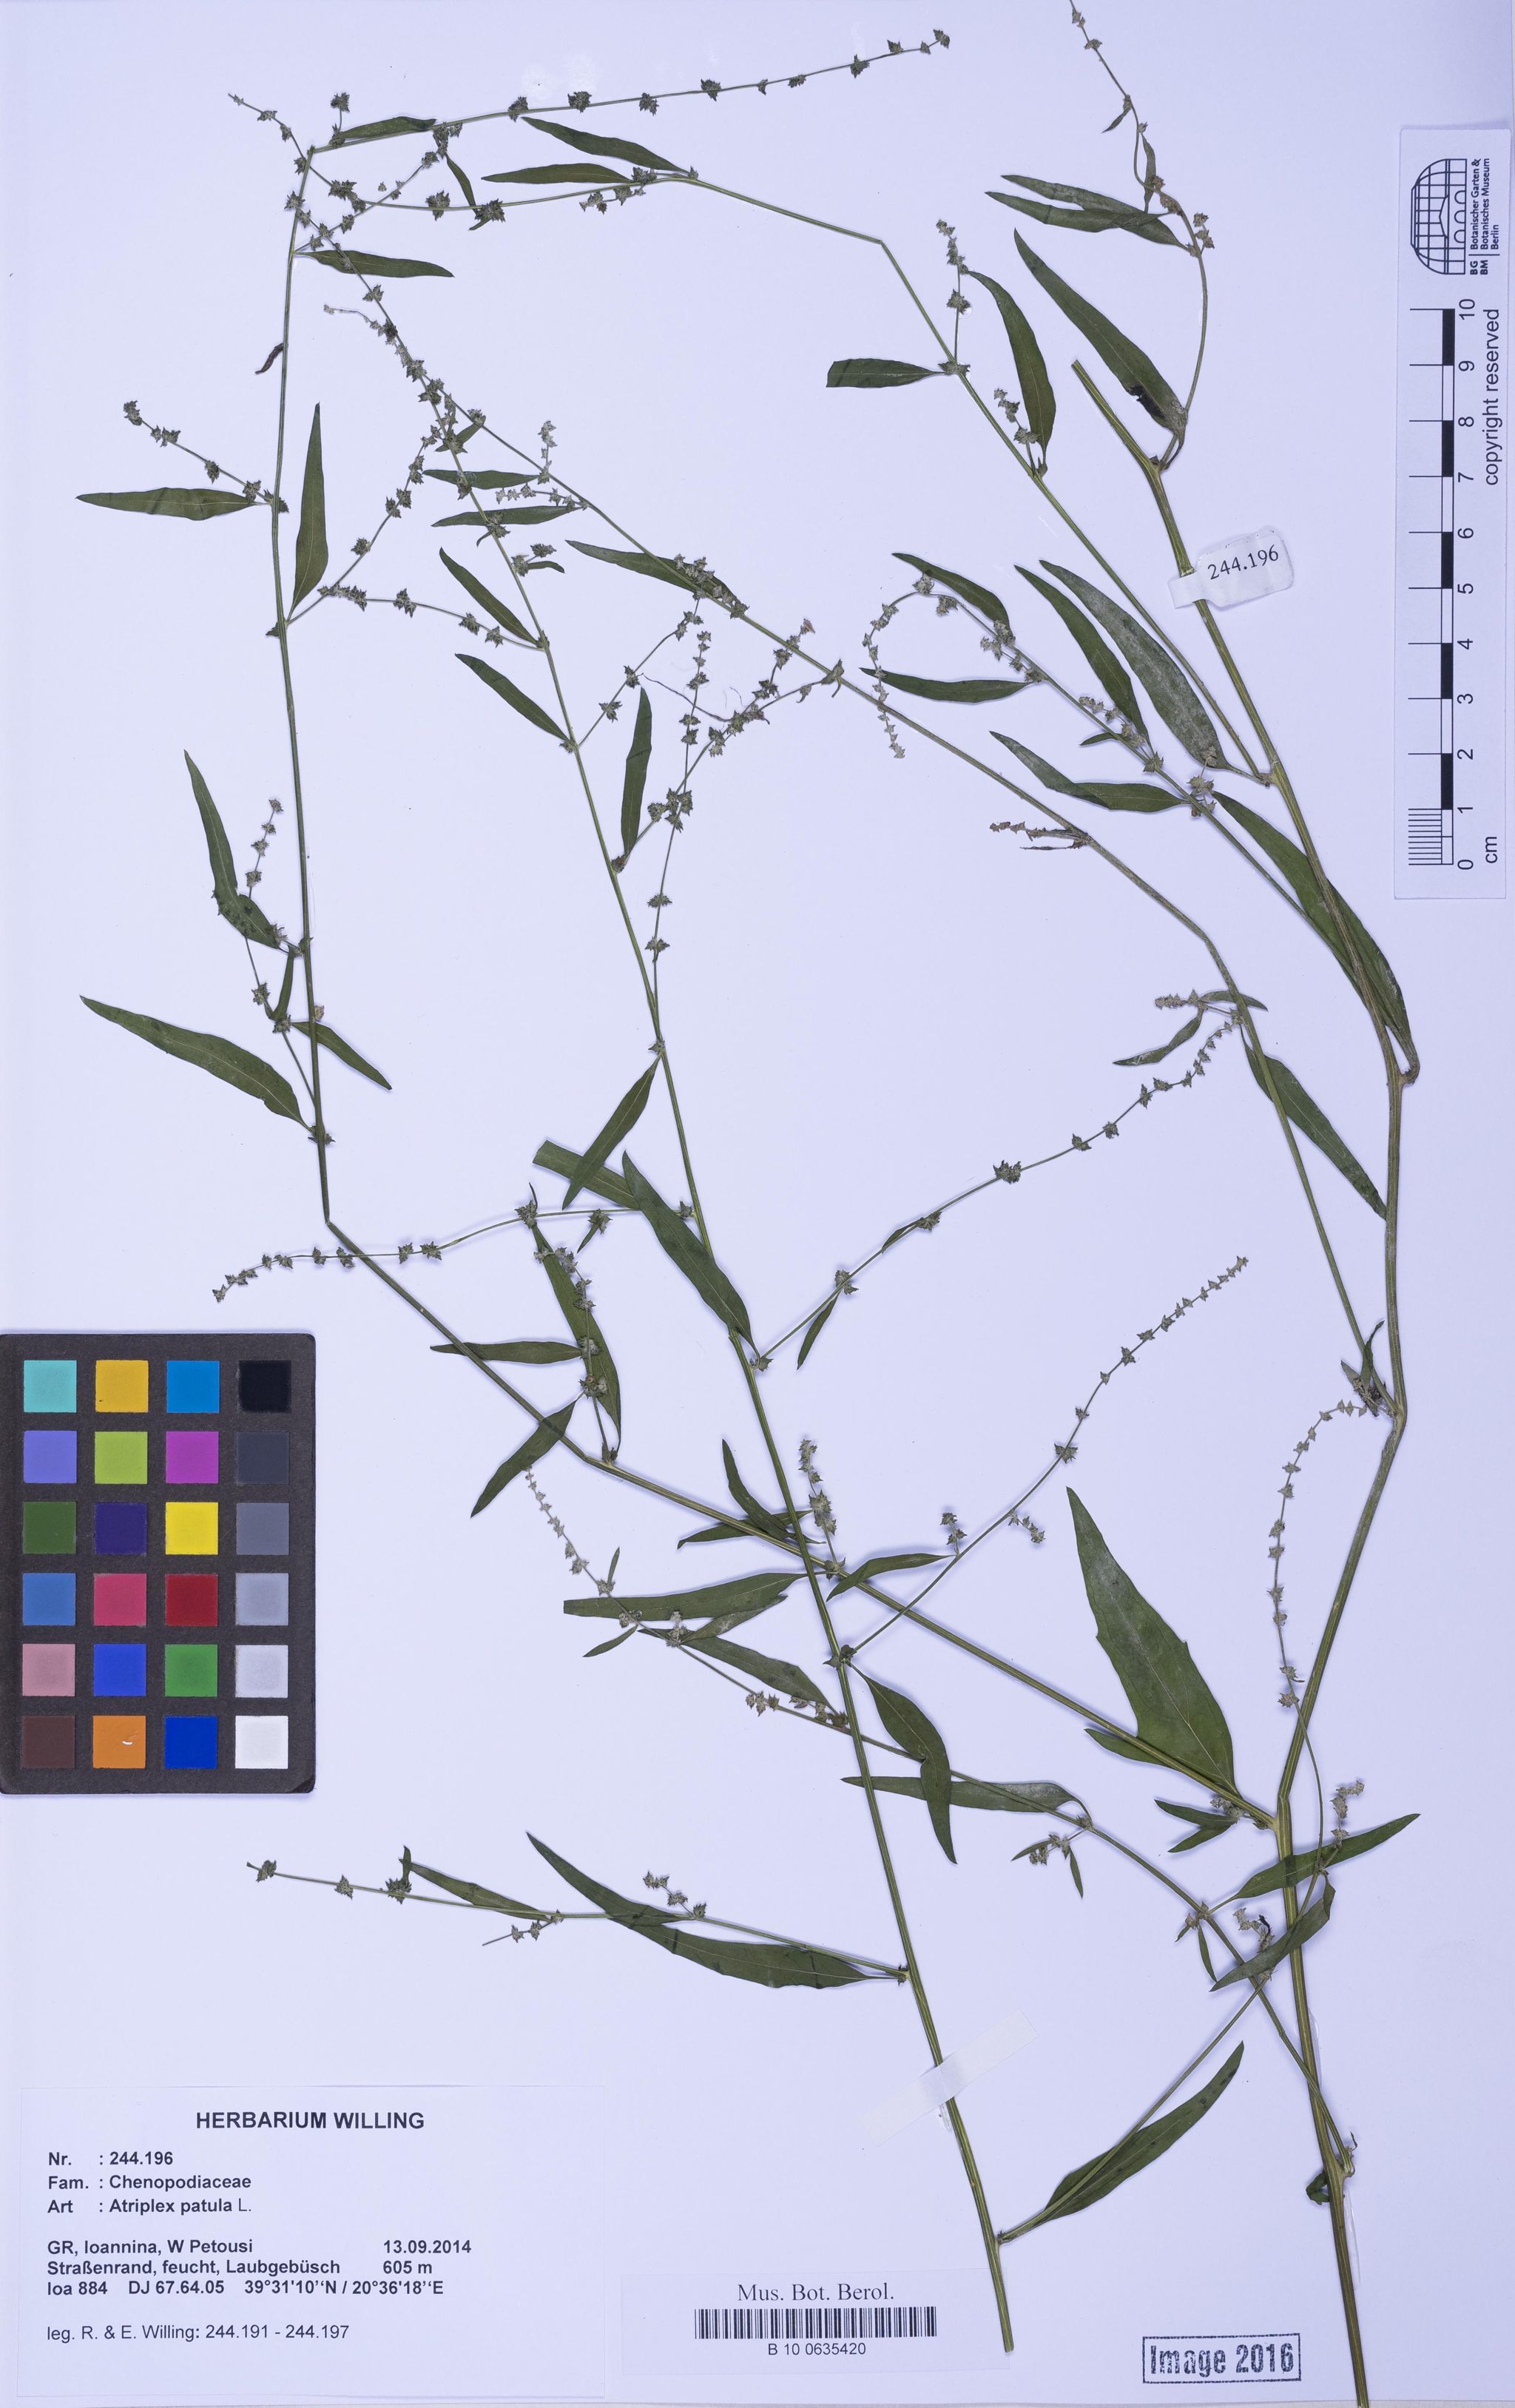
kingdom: Plantae
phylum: Tracheophyta
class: Magnoliopsida
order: Caryophyllales
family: Amaranthaceae
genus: Atriplex
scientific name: Atriplex patula
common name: Common orache
